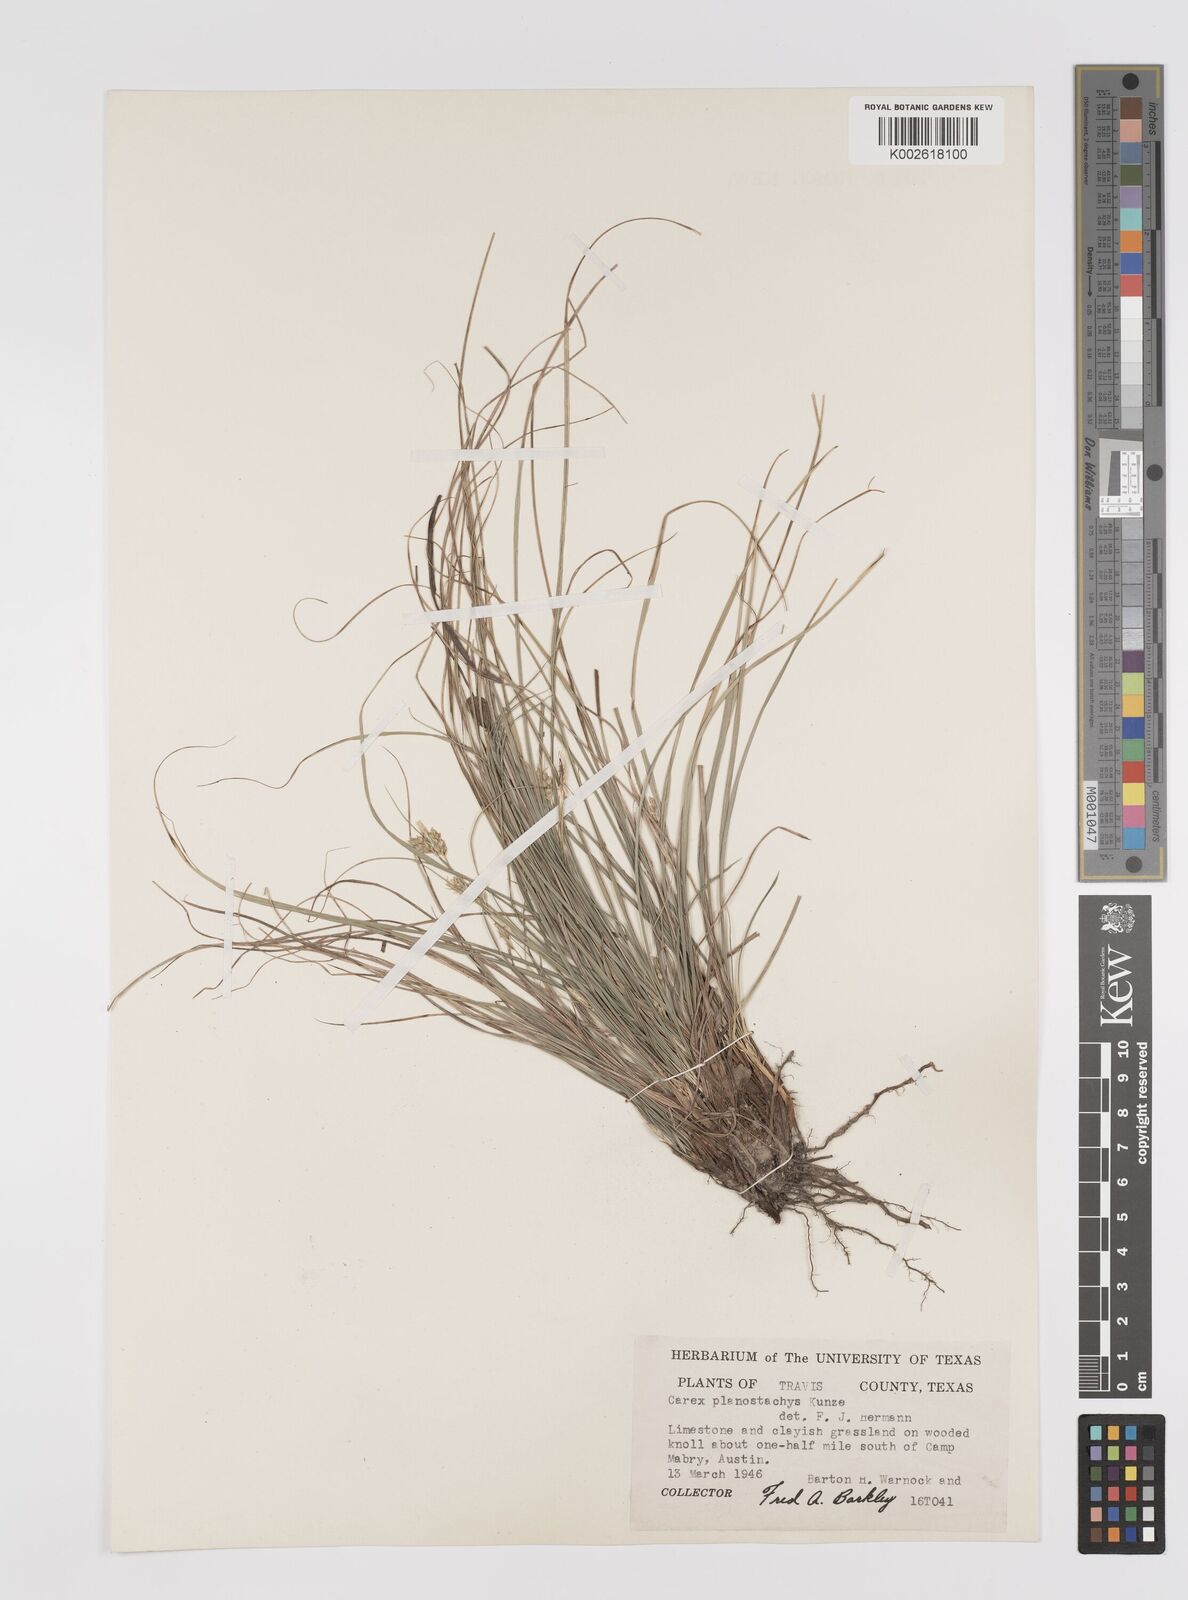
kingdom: Plantae
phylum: Tracheophyta
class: Liliopsida
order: Poales
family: Cyperaceae
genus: Carex
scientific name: Carex planostachys
